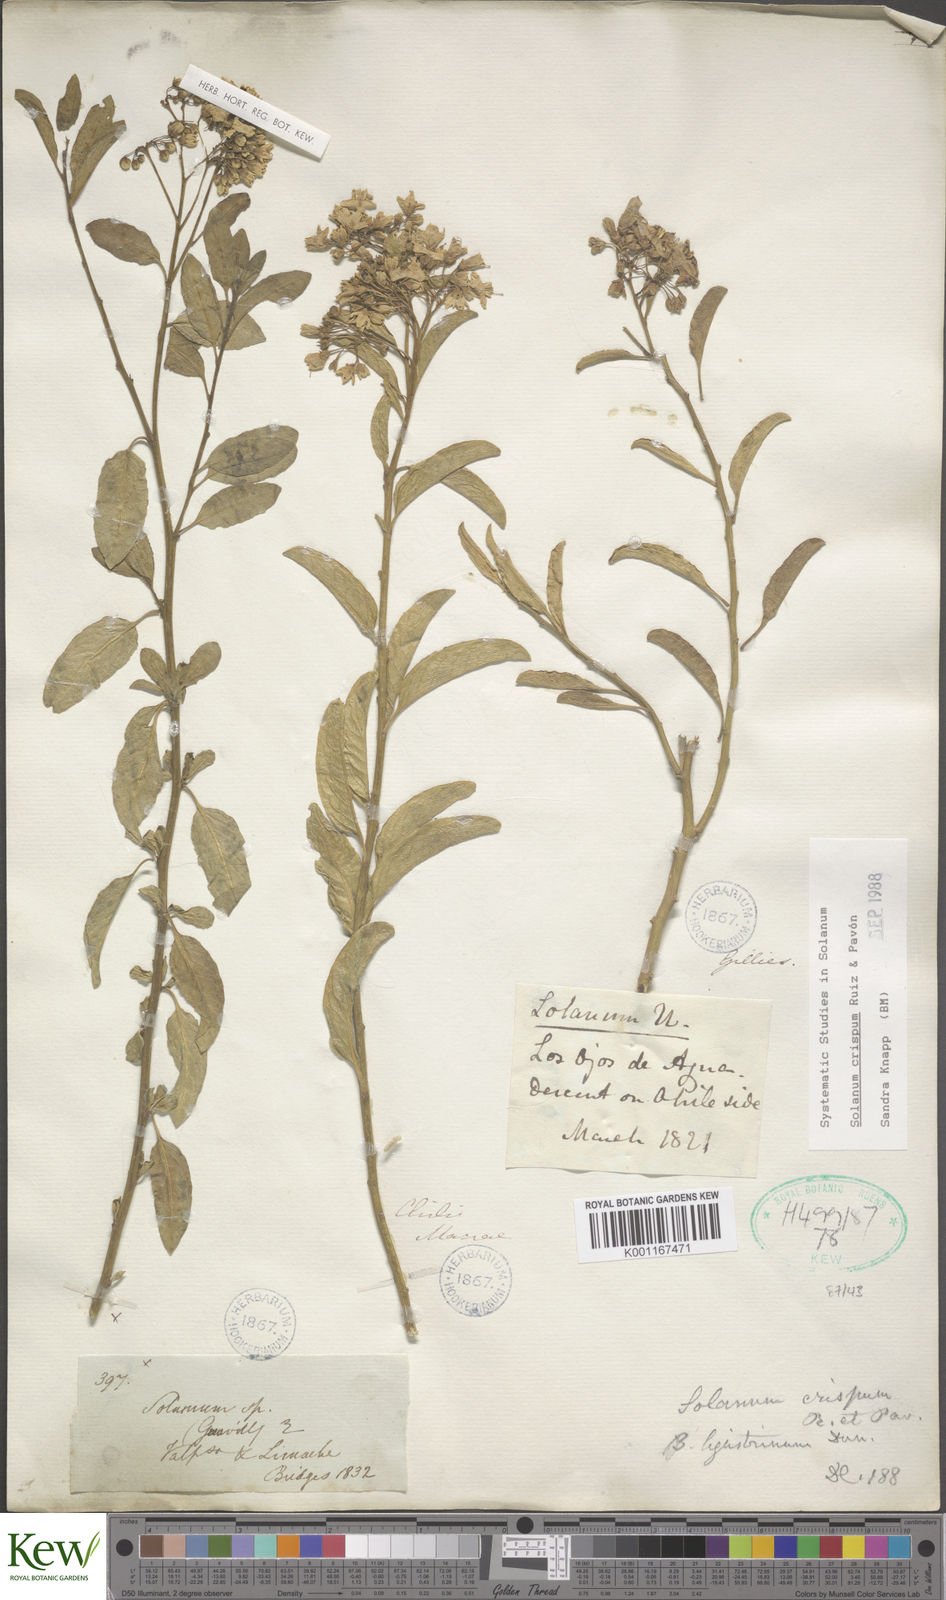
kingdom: Plantae
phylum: Tracheophyta
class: Magnoliopsida
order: Solanales
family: Solanaceae
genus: Solanum
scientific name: Solanum crispum
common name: Chilean nightshade
